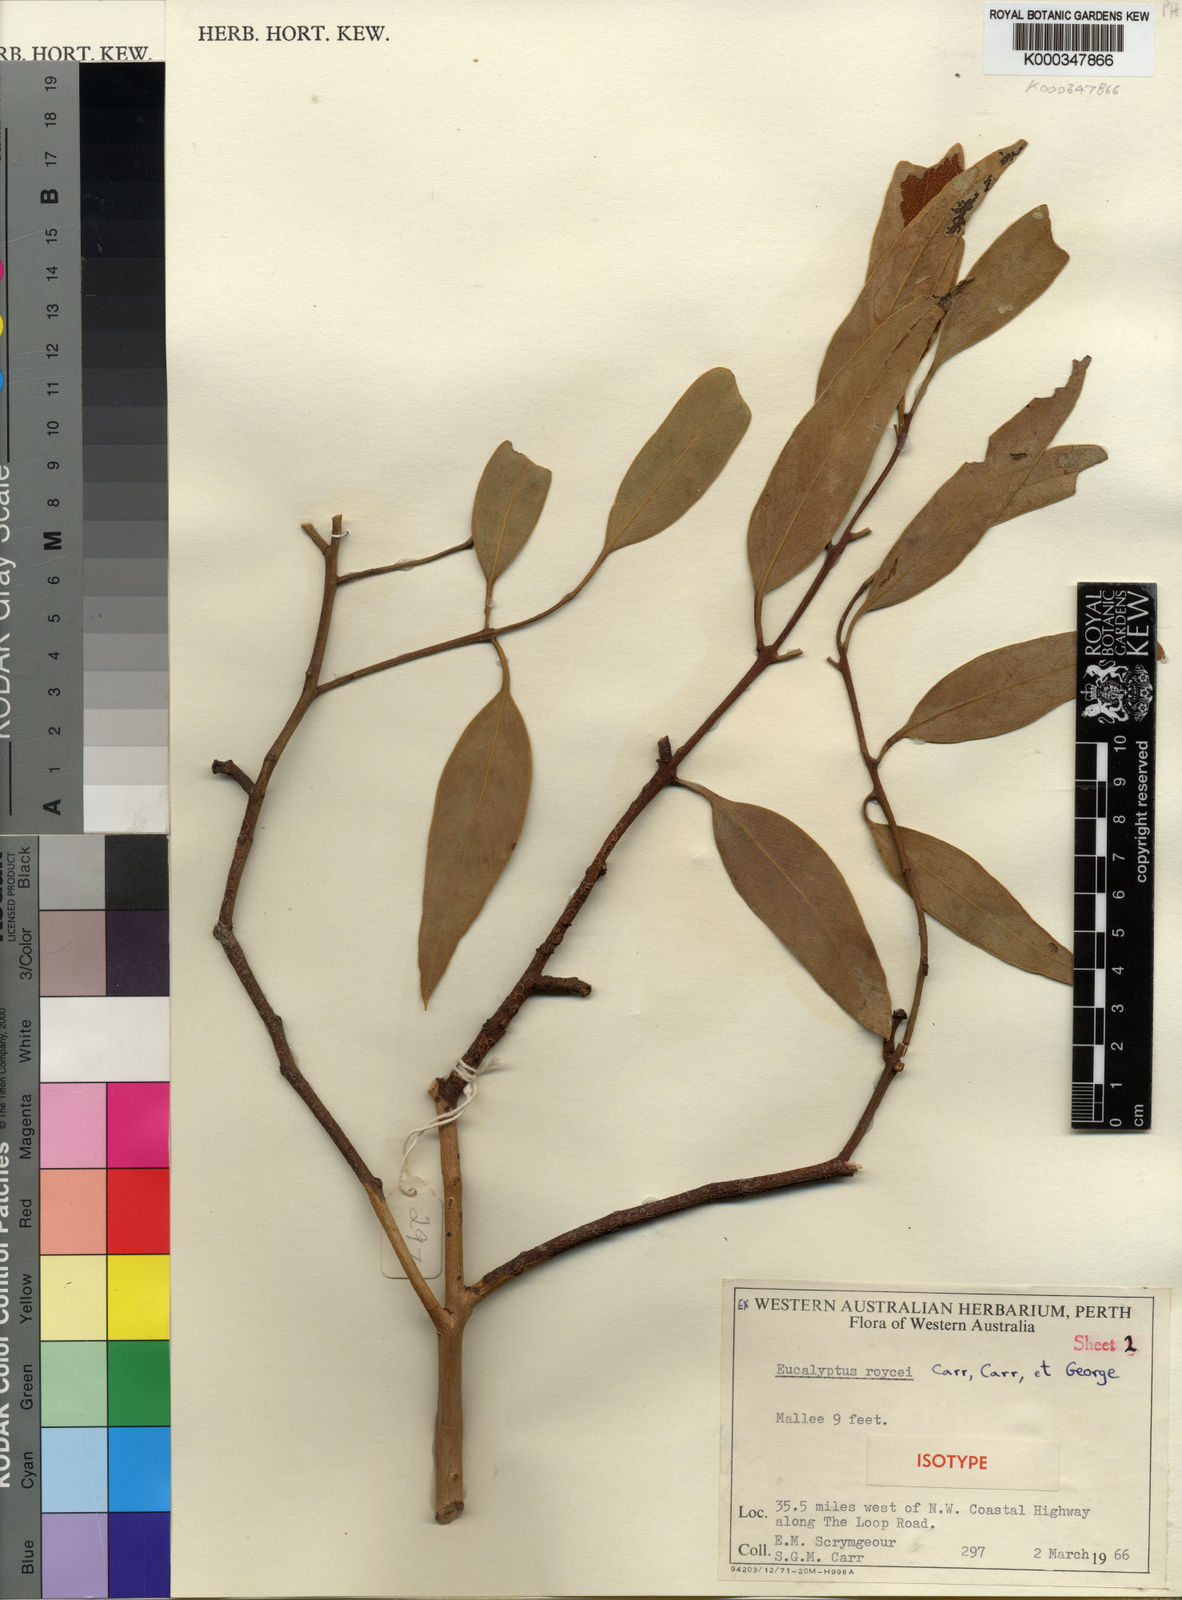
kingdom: Plantae
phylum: Tracheophyta
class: Magnoliopsida
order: Myrtales
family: Myrtaceae
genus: Eucalyptus
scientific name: Eucalyptus roycei
